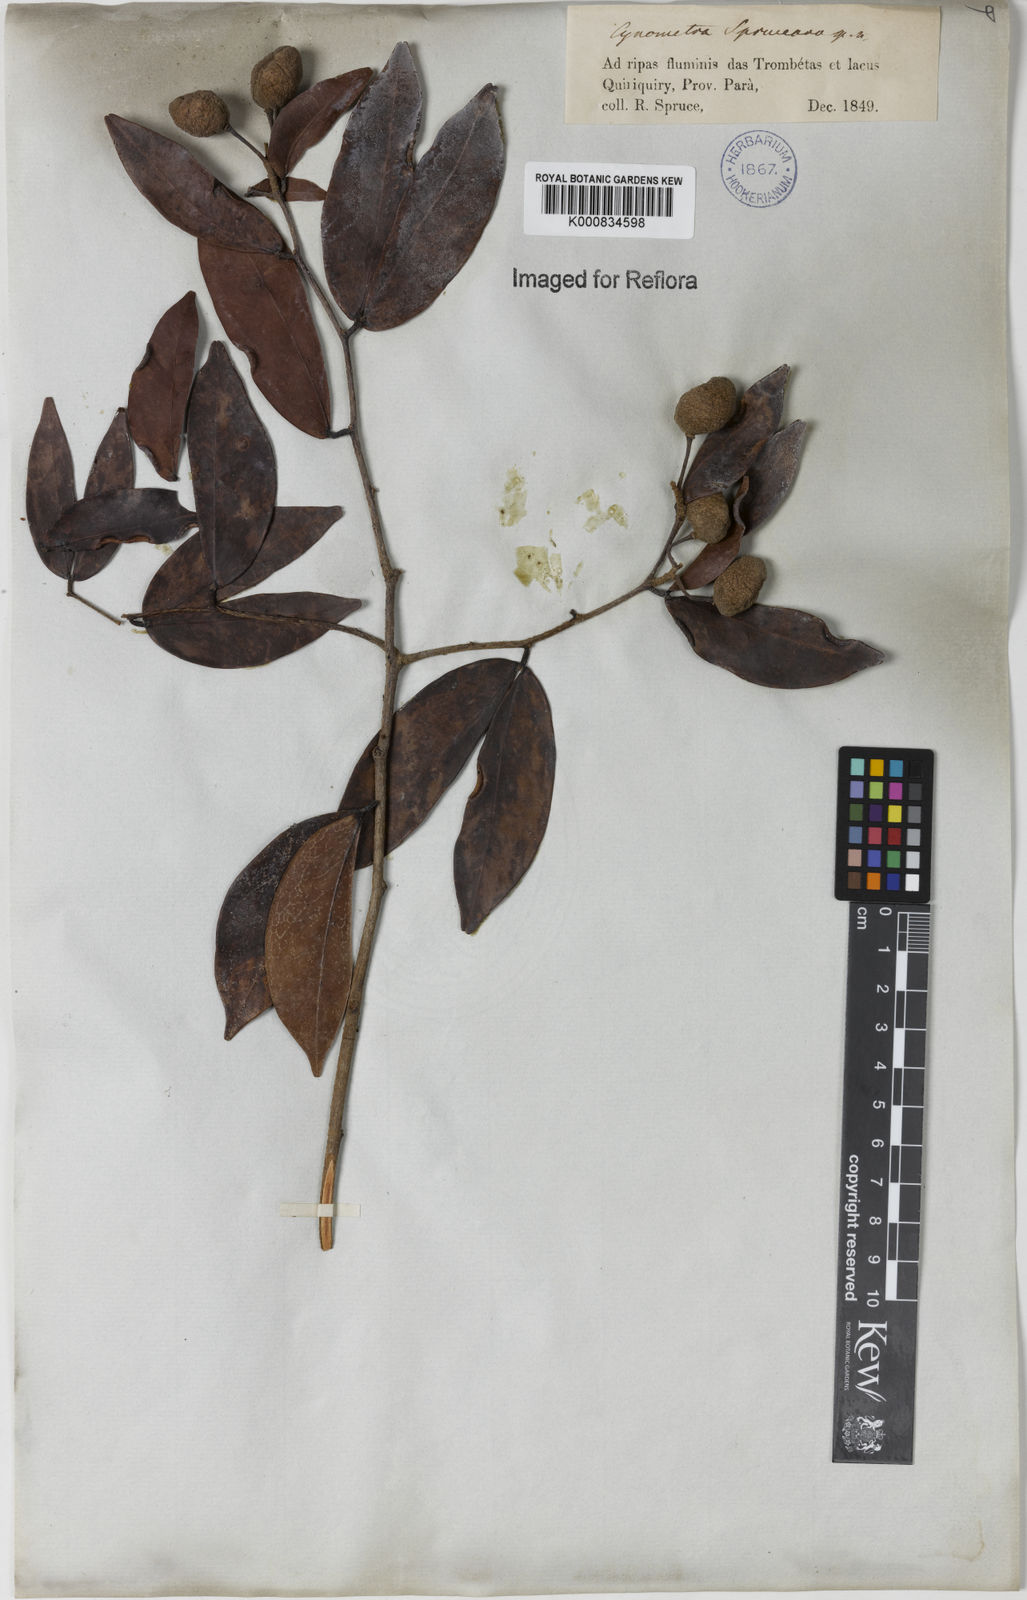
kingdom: Plantae
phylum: Tracheophyta
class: Magnoliopsida
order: Fabales
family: Fabaceae
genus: Cynometra
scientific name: Cynometra phaselocarpa
